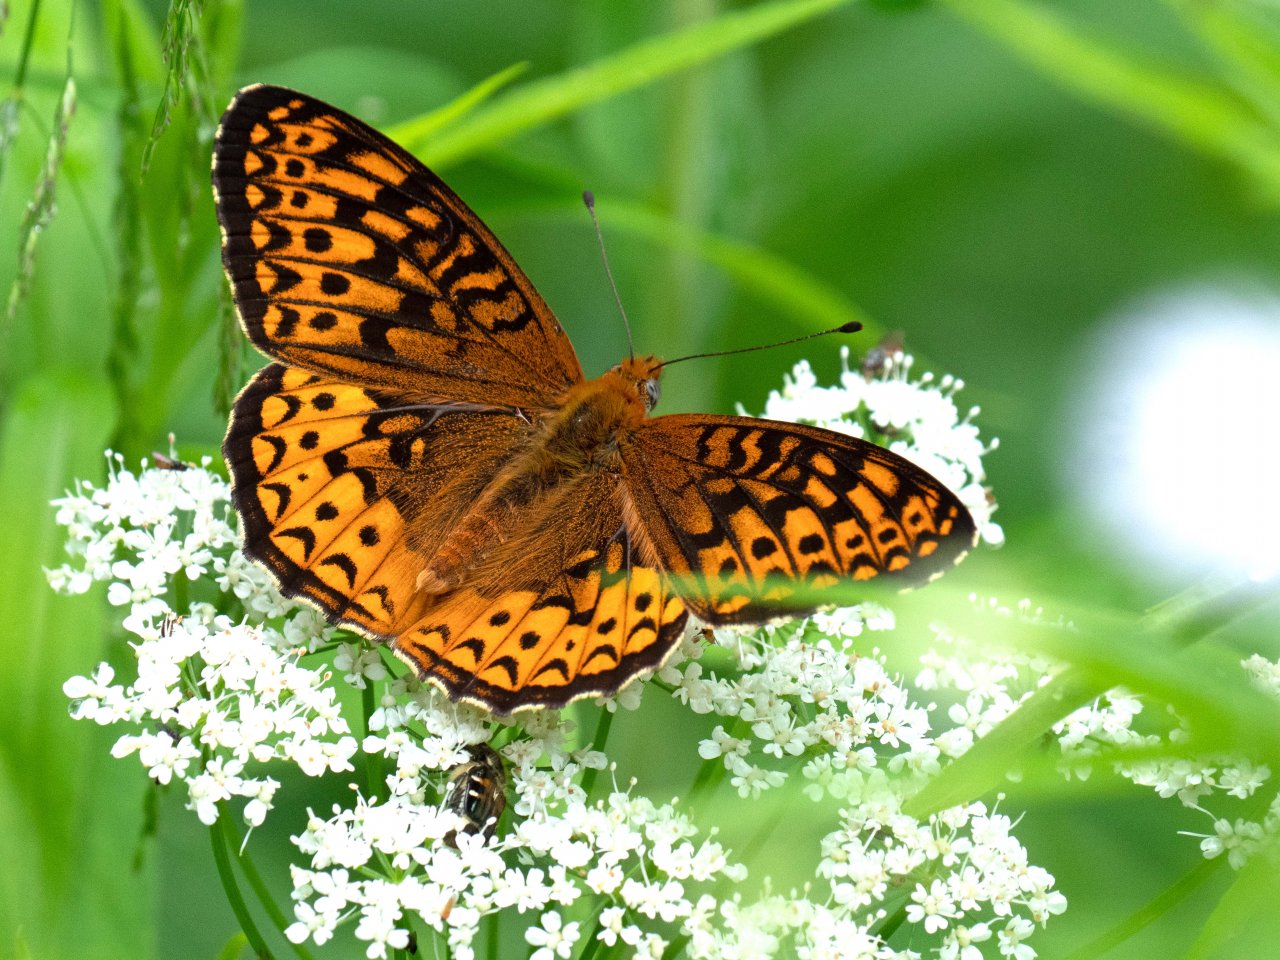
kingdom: Animalia
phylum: Arthropoda
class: Insecta
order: Lepidoptera
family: Nymphalidae
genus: Speyeria
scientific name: Speyeria atlantis
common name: Atlantis Fritillary
